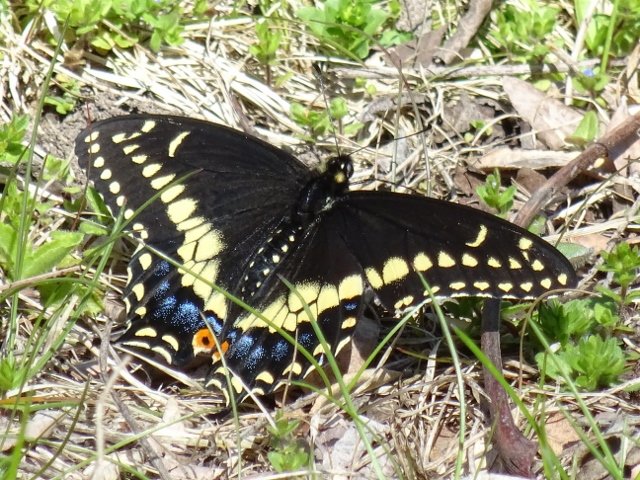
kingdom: Animalia
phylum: Arthropoda
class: Insecta
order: Lepidoptera
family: Papilionidae
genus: Papilio
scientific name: Papilio polyxenes
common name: Black Swallowtail
